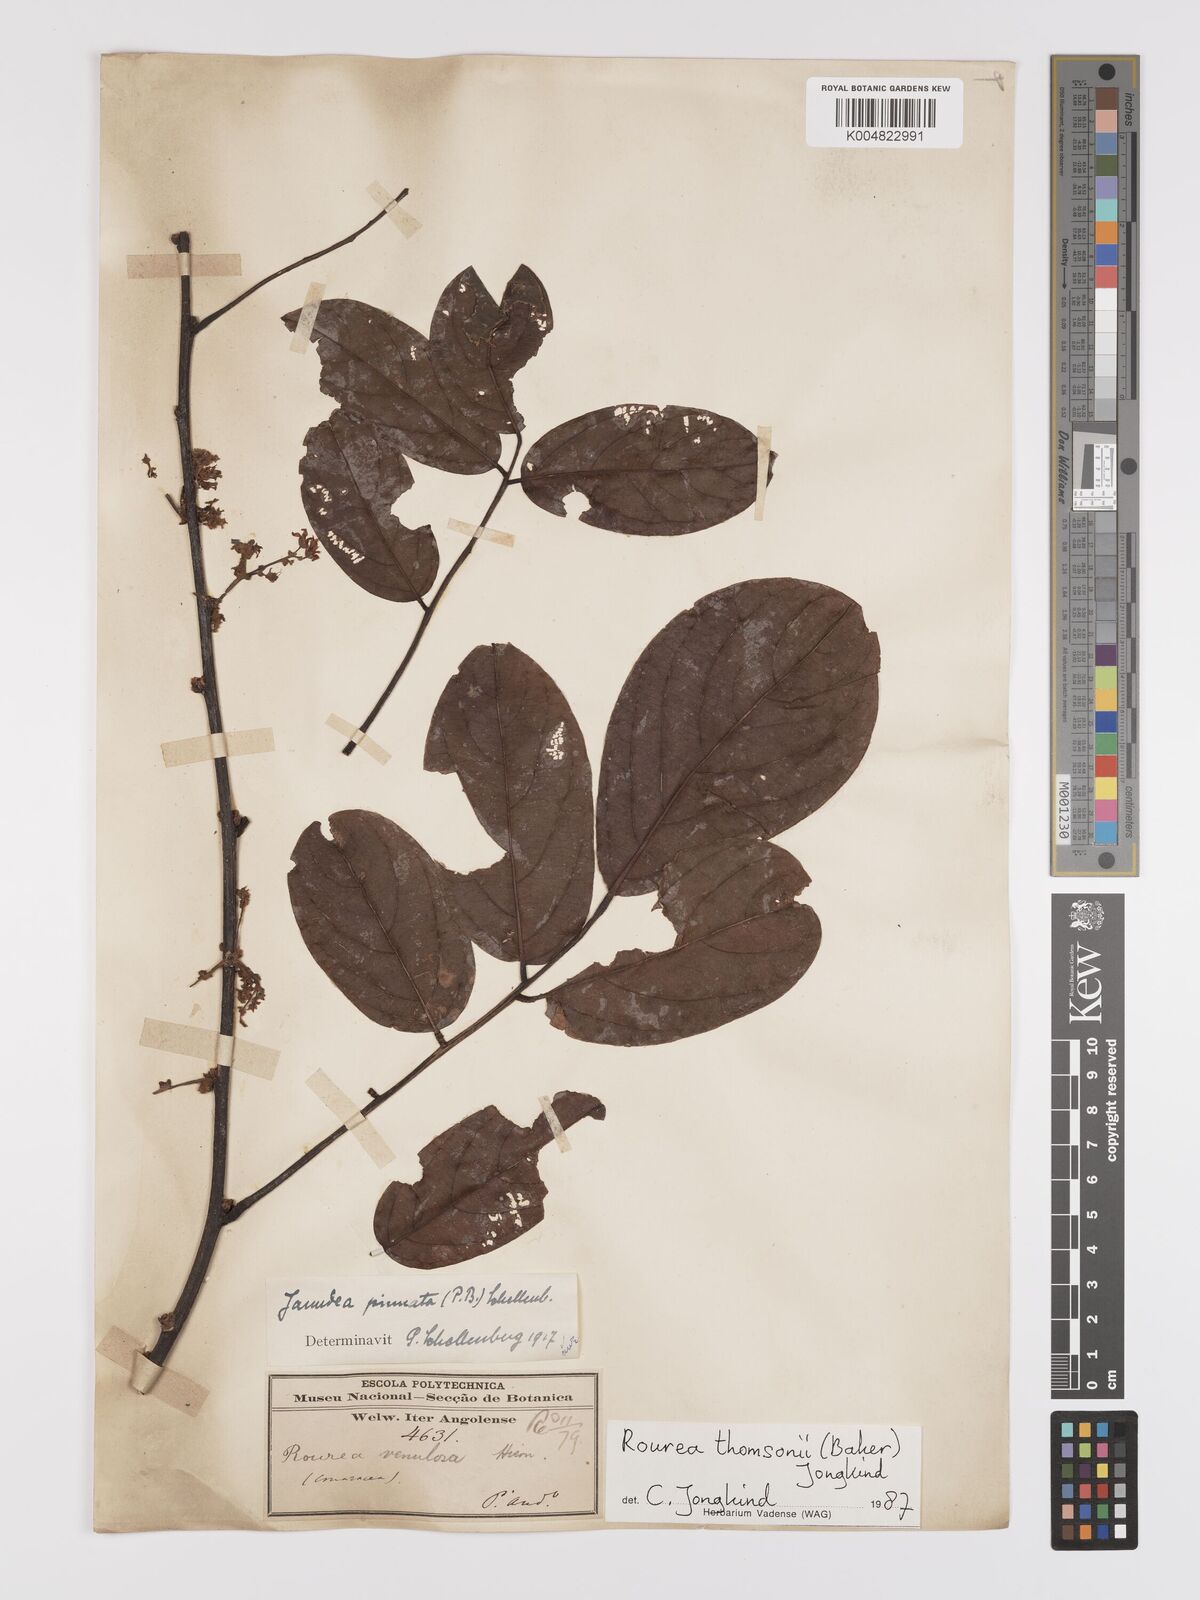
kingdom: Plantae
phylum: Tracheophyta
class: Magnoliopsida
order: Oxalidales
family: Connaraceae
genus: Rourea
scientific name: Rourea pinnata
